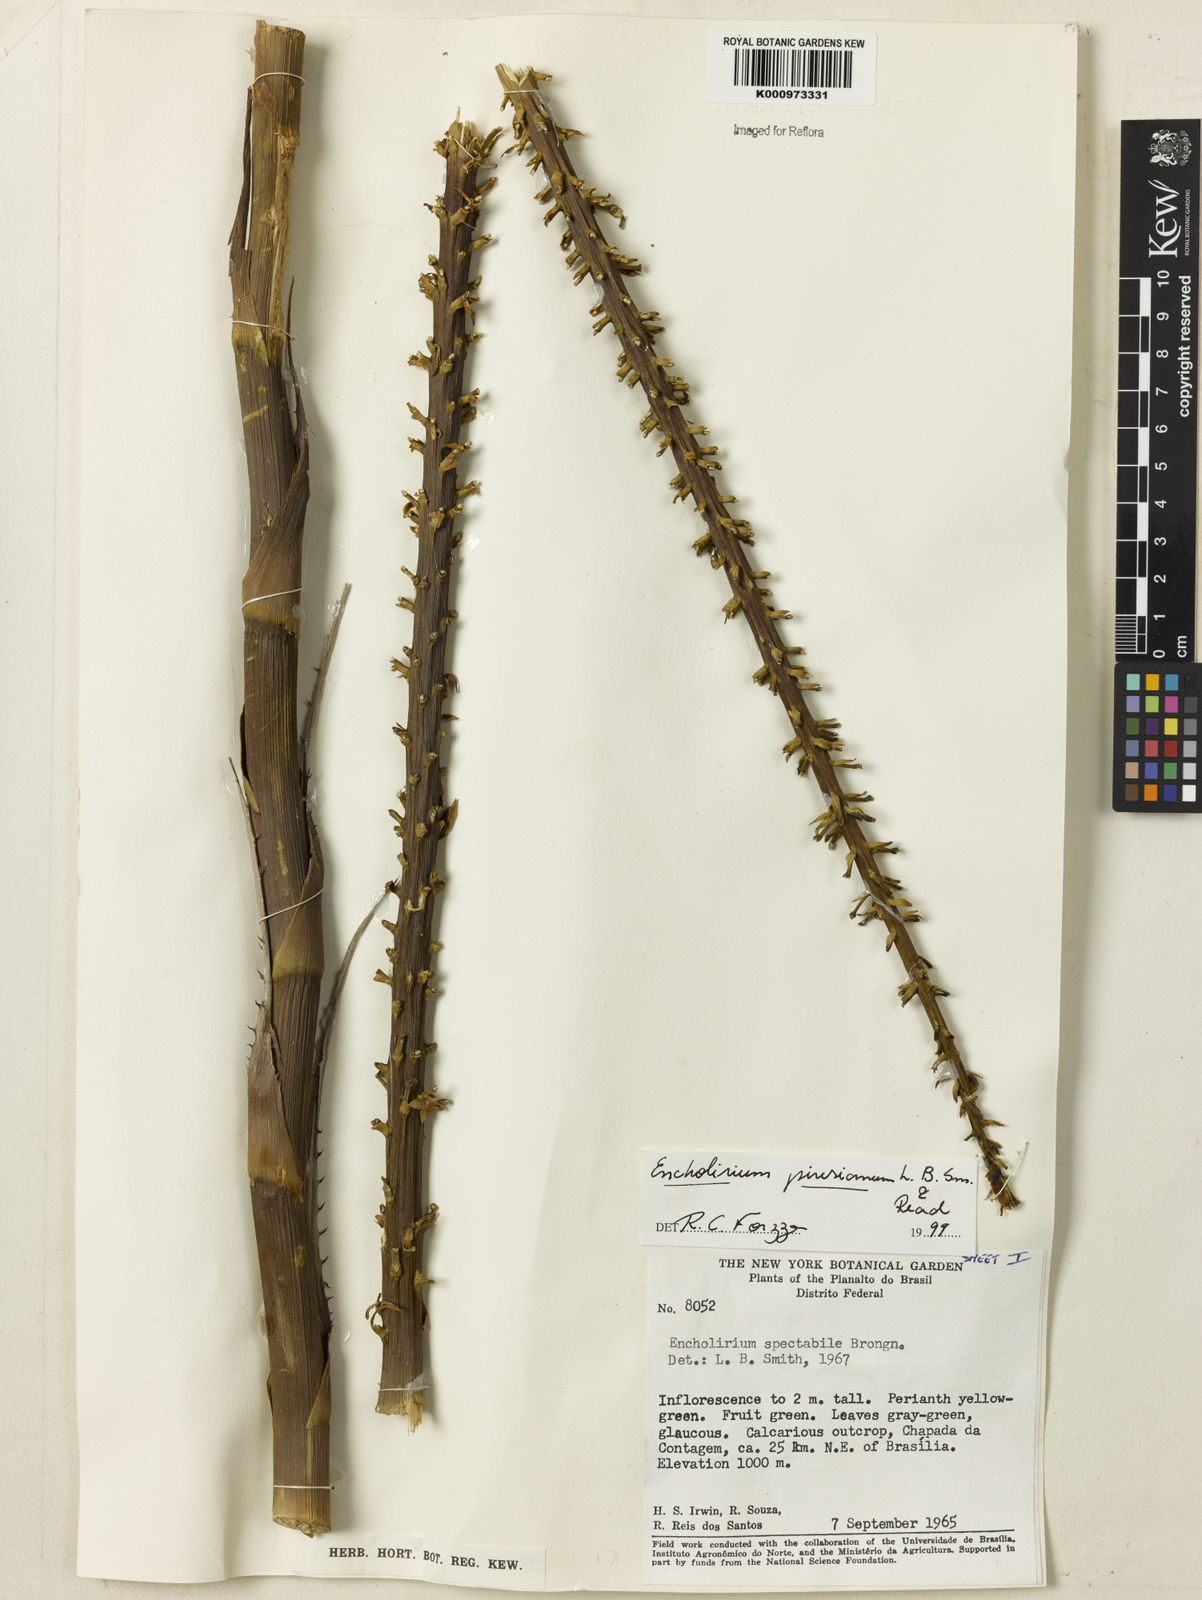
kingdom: Plantae
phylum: Tracheophyta
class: Liliopsida
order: Poales
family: Bromeliaceae
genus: Encholirium
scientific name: Encholirium luxor
